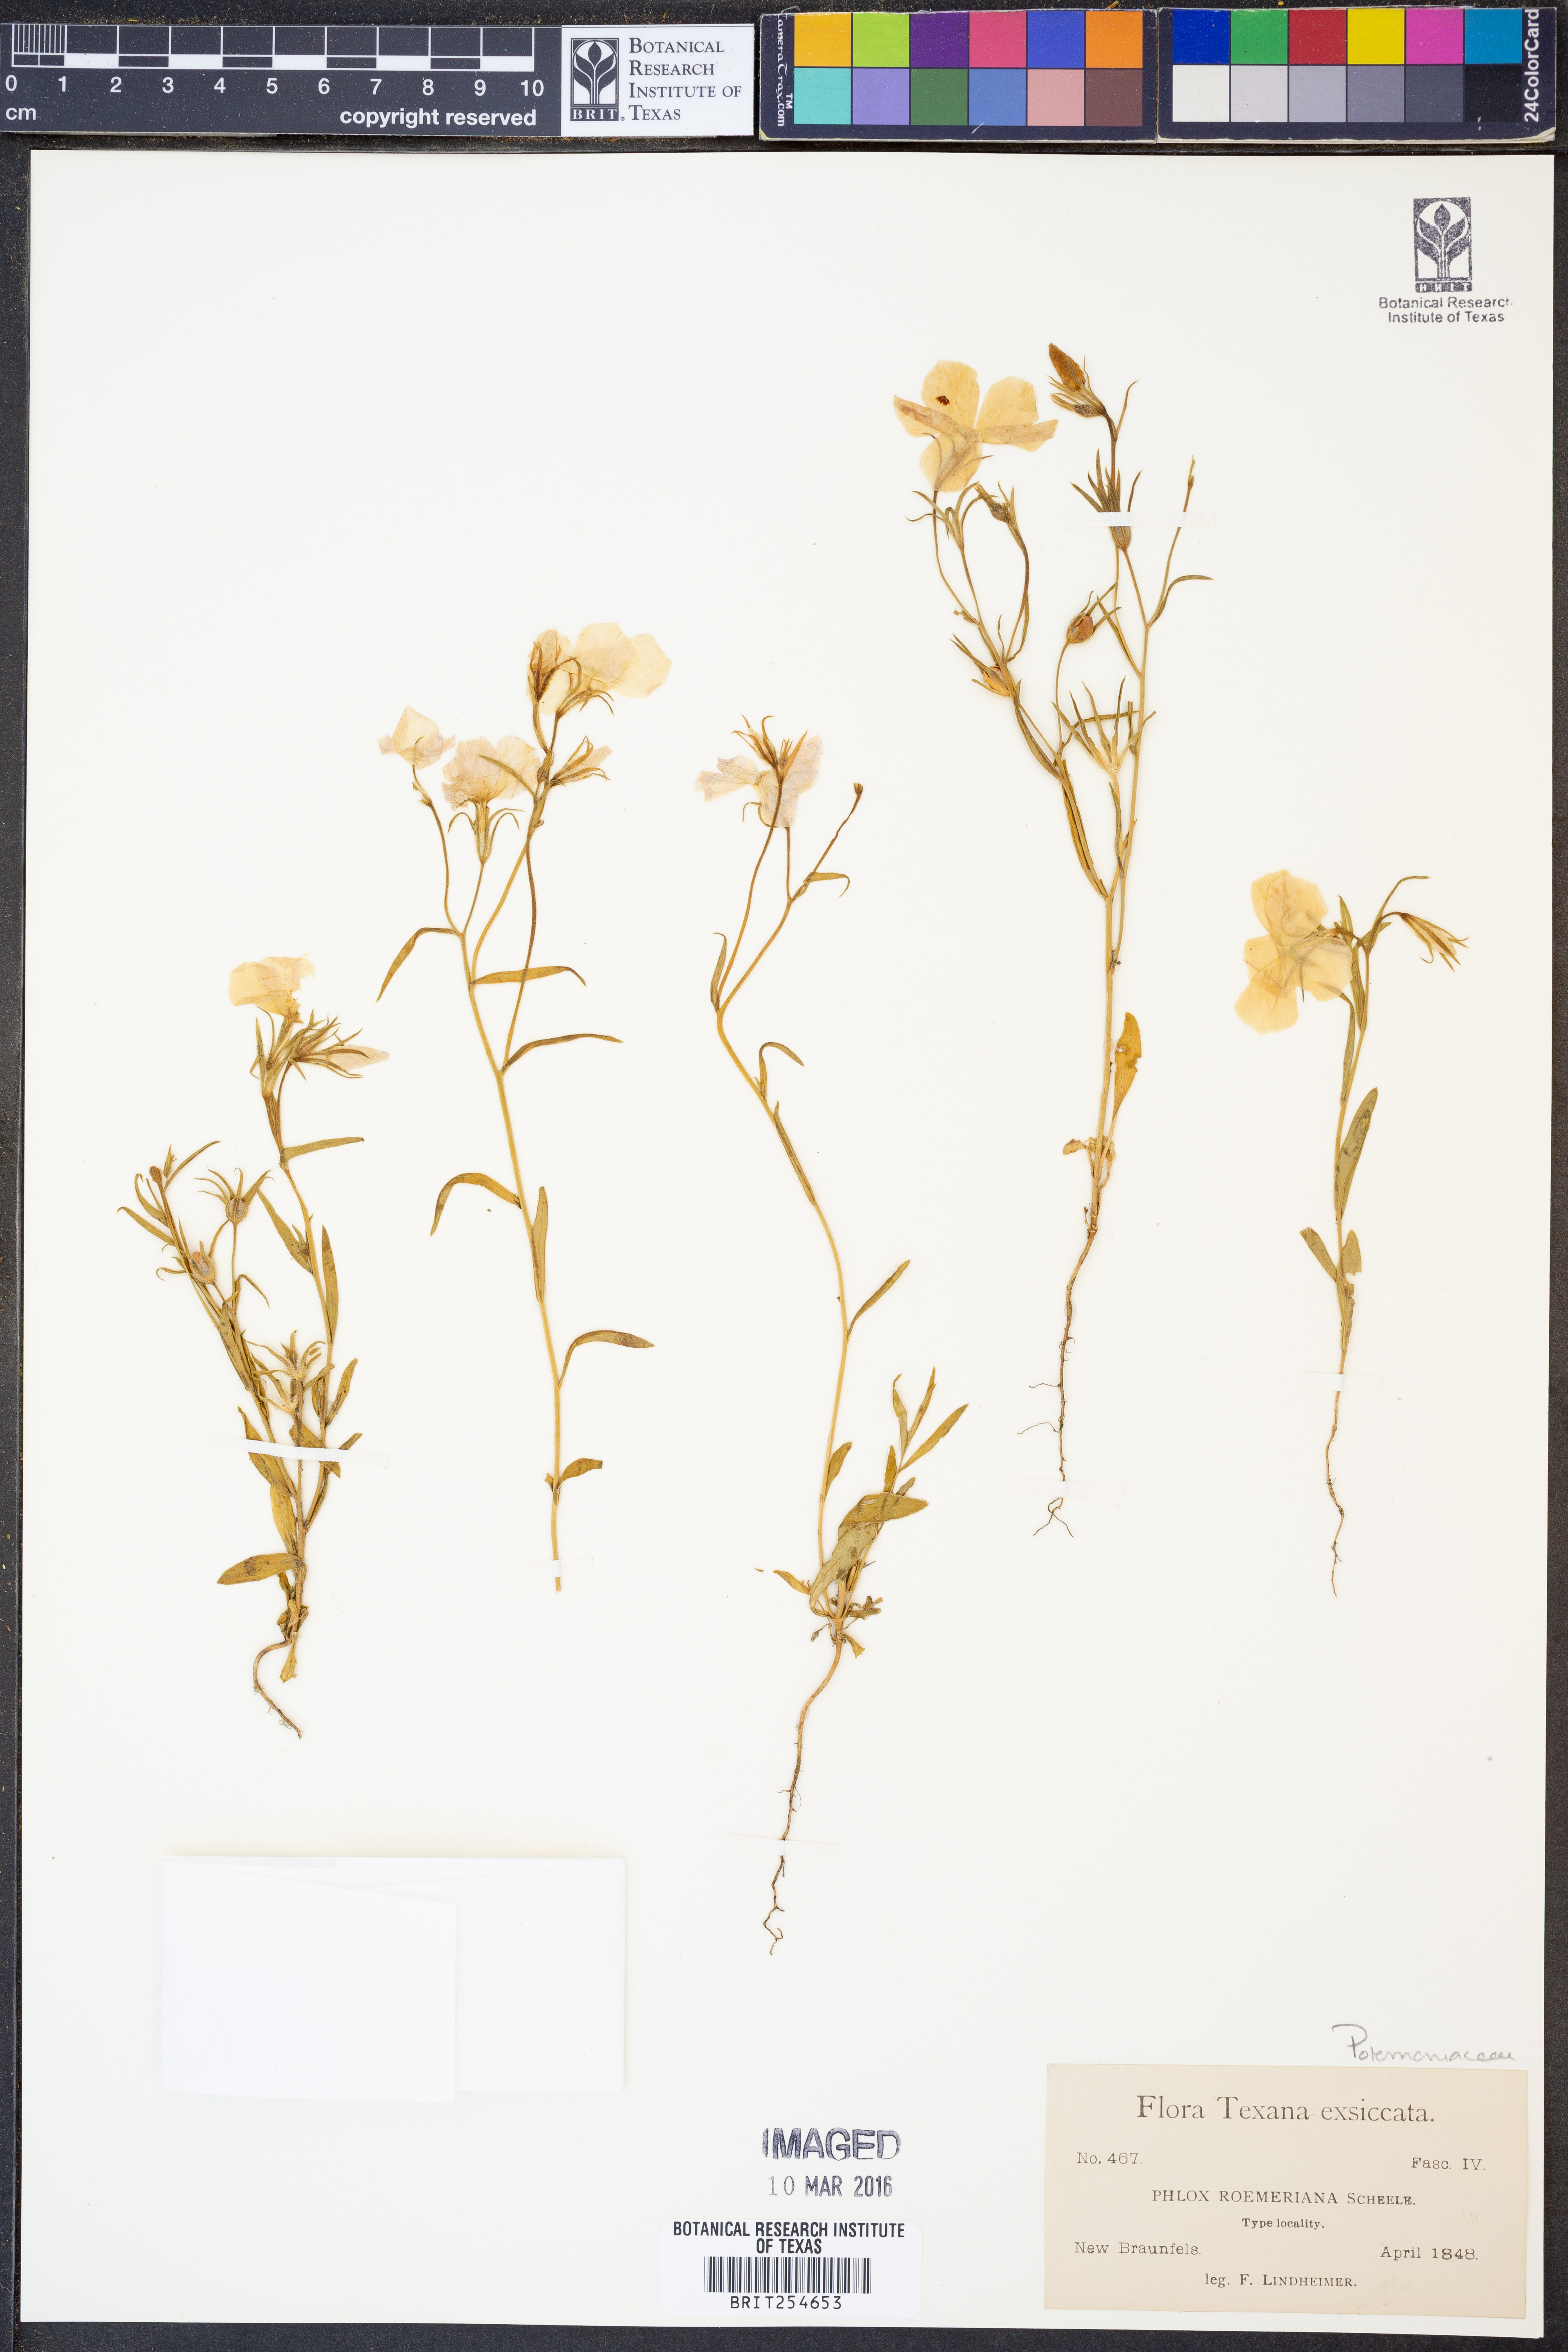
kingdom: Plantae
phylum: Tracheophyta
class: Magnoliopsida
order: Ericales
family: Polemoniaceae
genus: Phlox
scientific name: Phlox roemeriana
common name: Roemer's phlox
